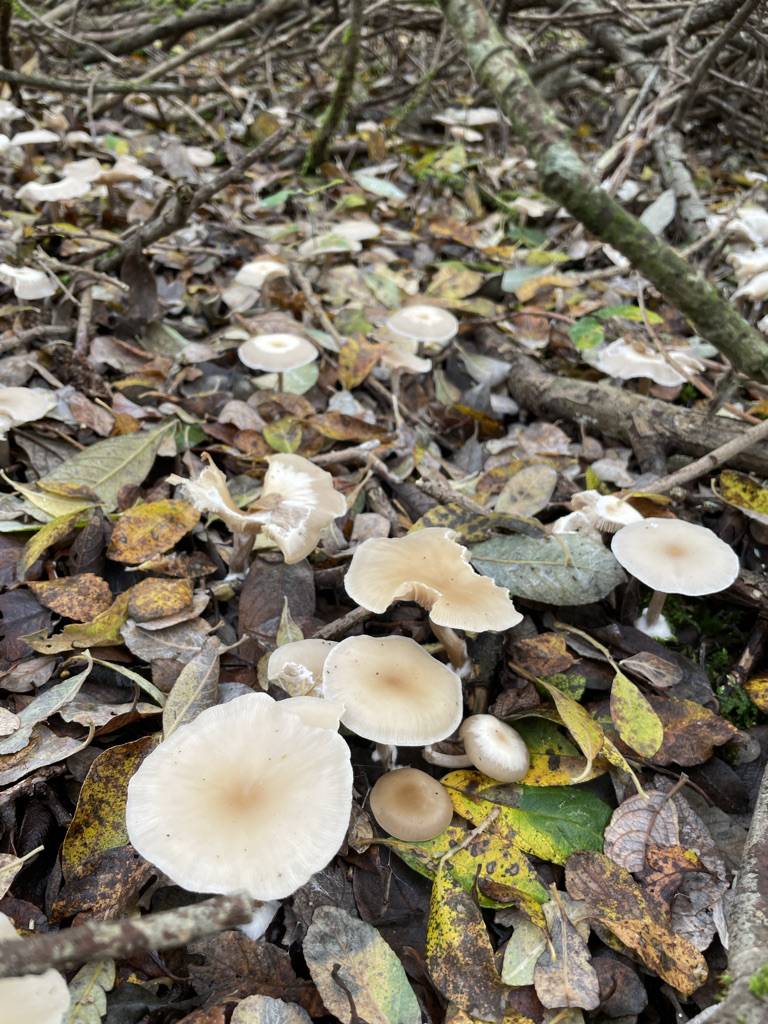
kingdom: Fungi
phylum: Basidiomycota
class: Agaricomycetes
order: Agaricales
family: Tricholomataceae
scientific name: Tricholomataceae
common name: ridderhatfamilien
